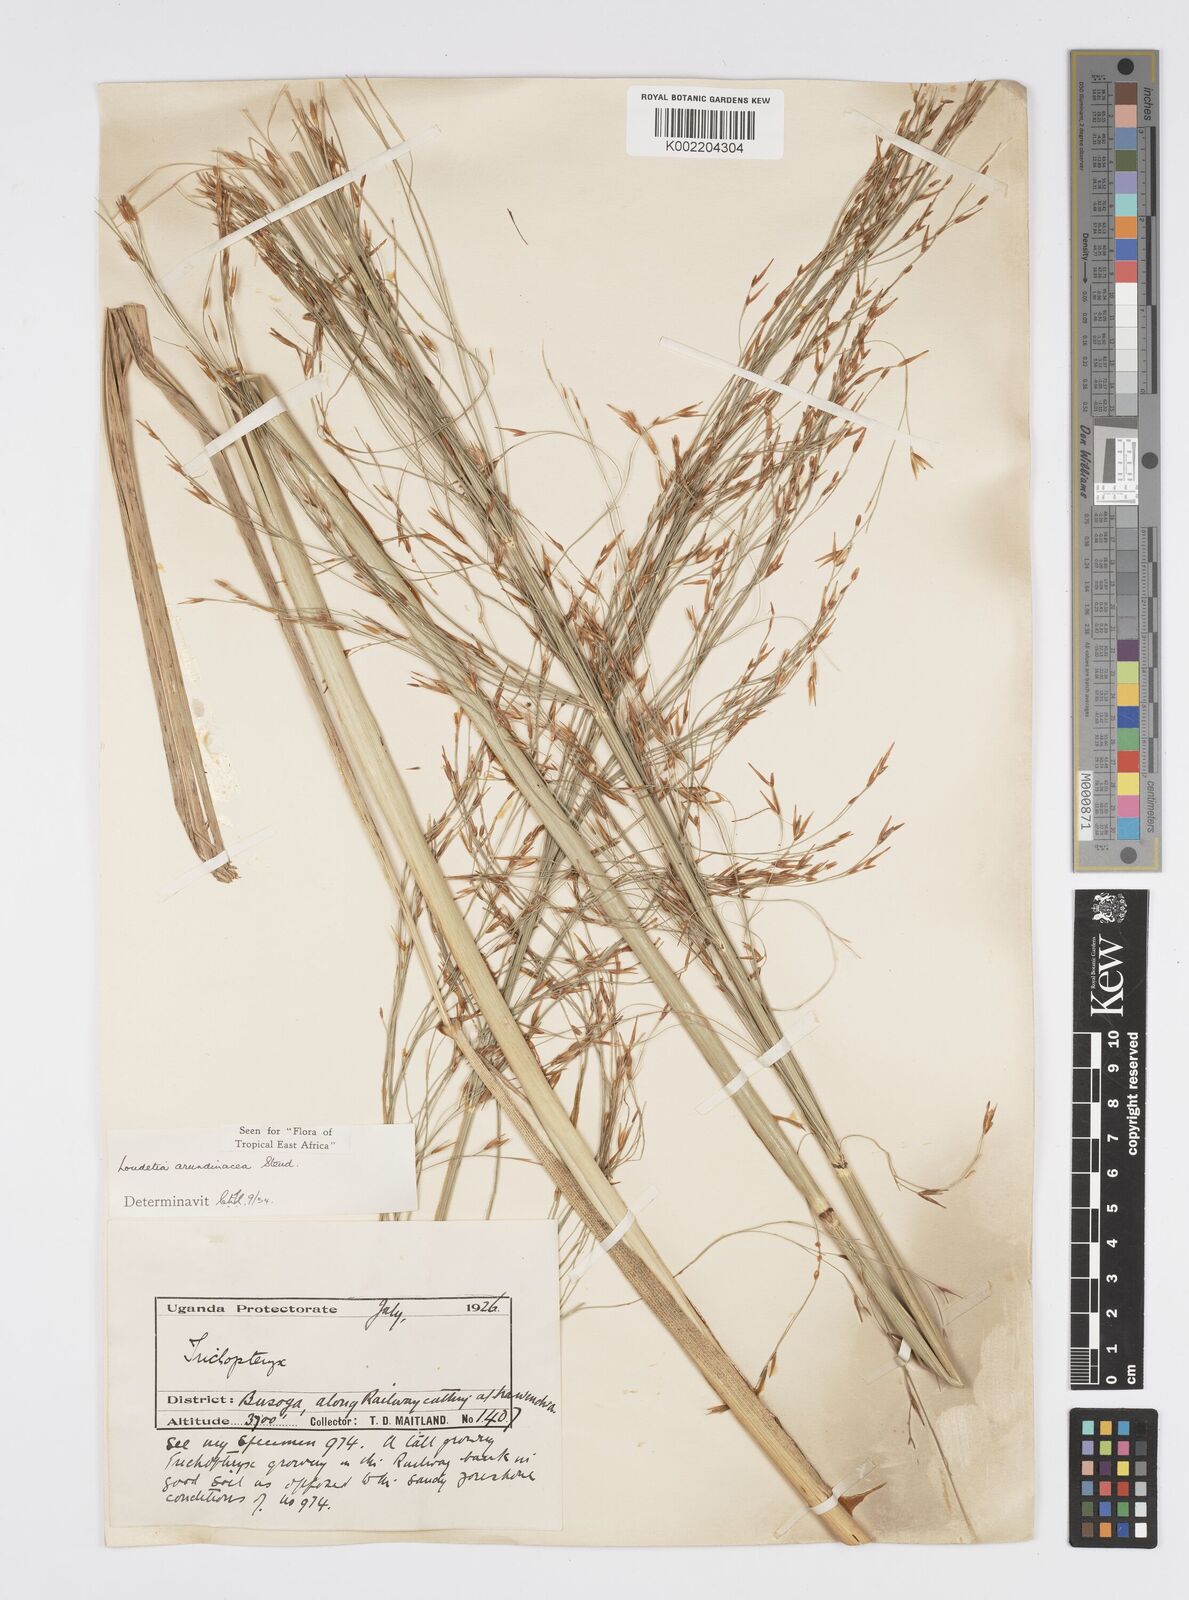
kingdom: Plantae
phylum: Tracheophyta
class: Liliopsida
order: Poales
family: Poaceae
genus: Loudetia
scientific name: Loudetia arundinacea
